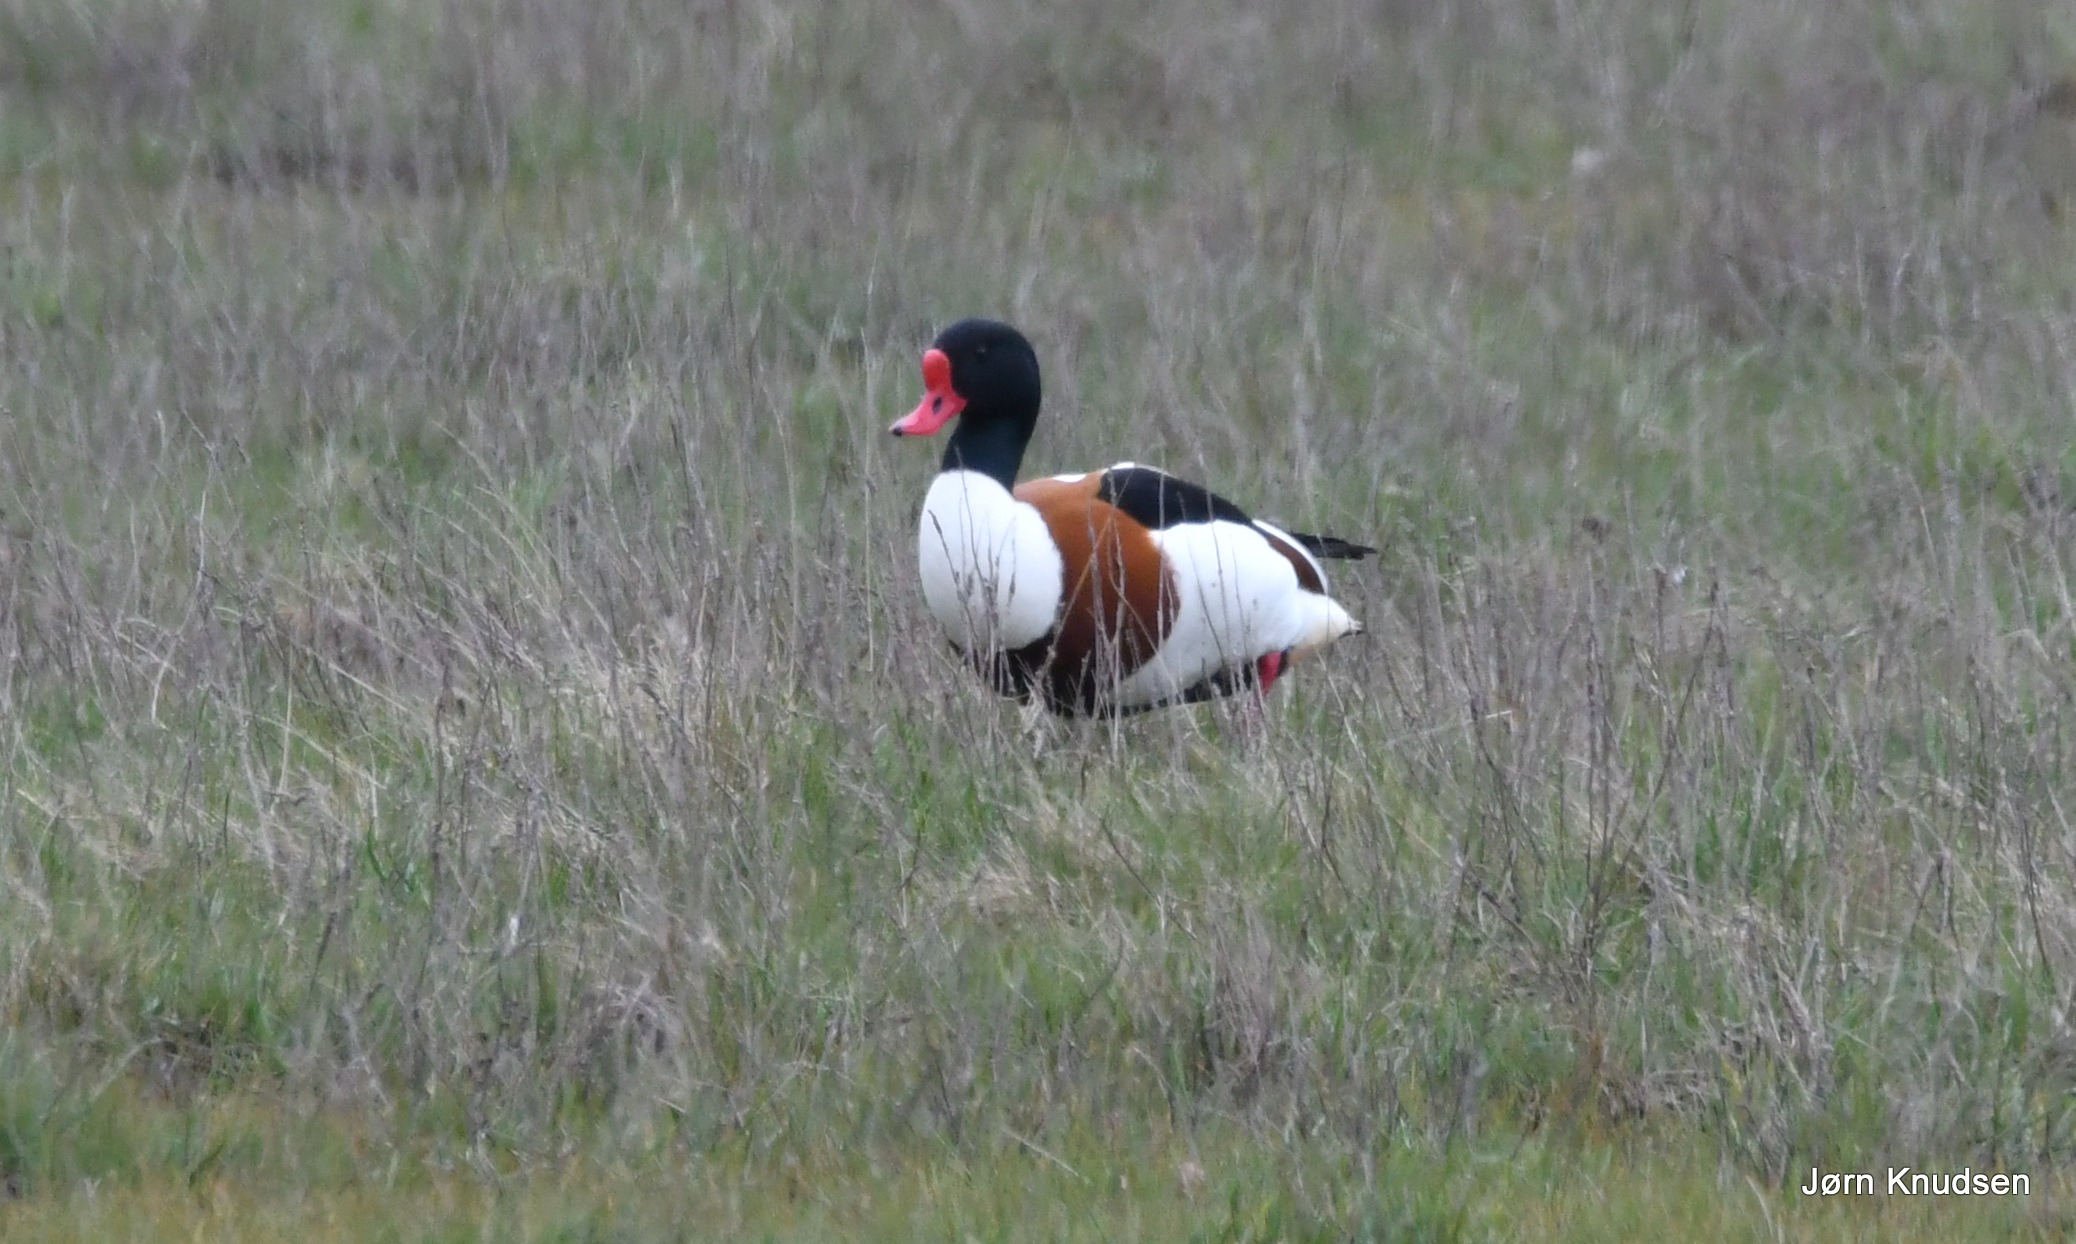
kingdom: Animalia
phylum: Chordata
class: Aves
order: Anseriformes
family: Anatidae
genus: Tadorna
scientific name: Tadorna tadorna
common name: Gravand
